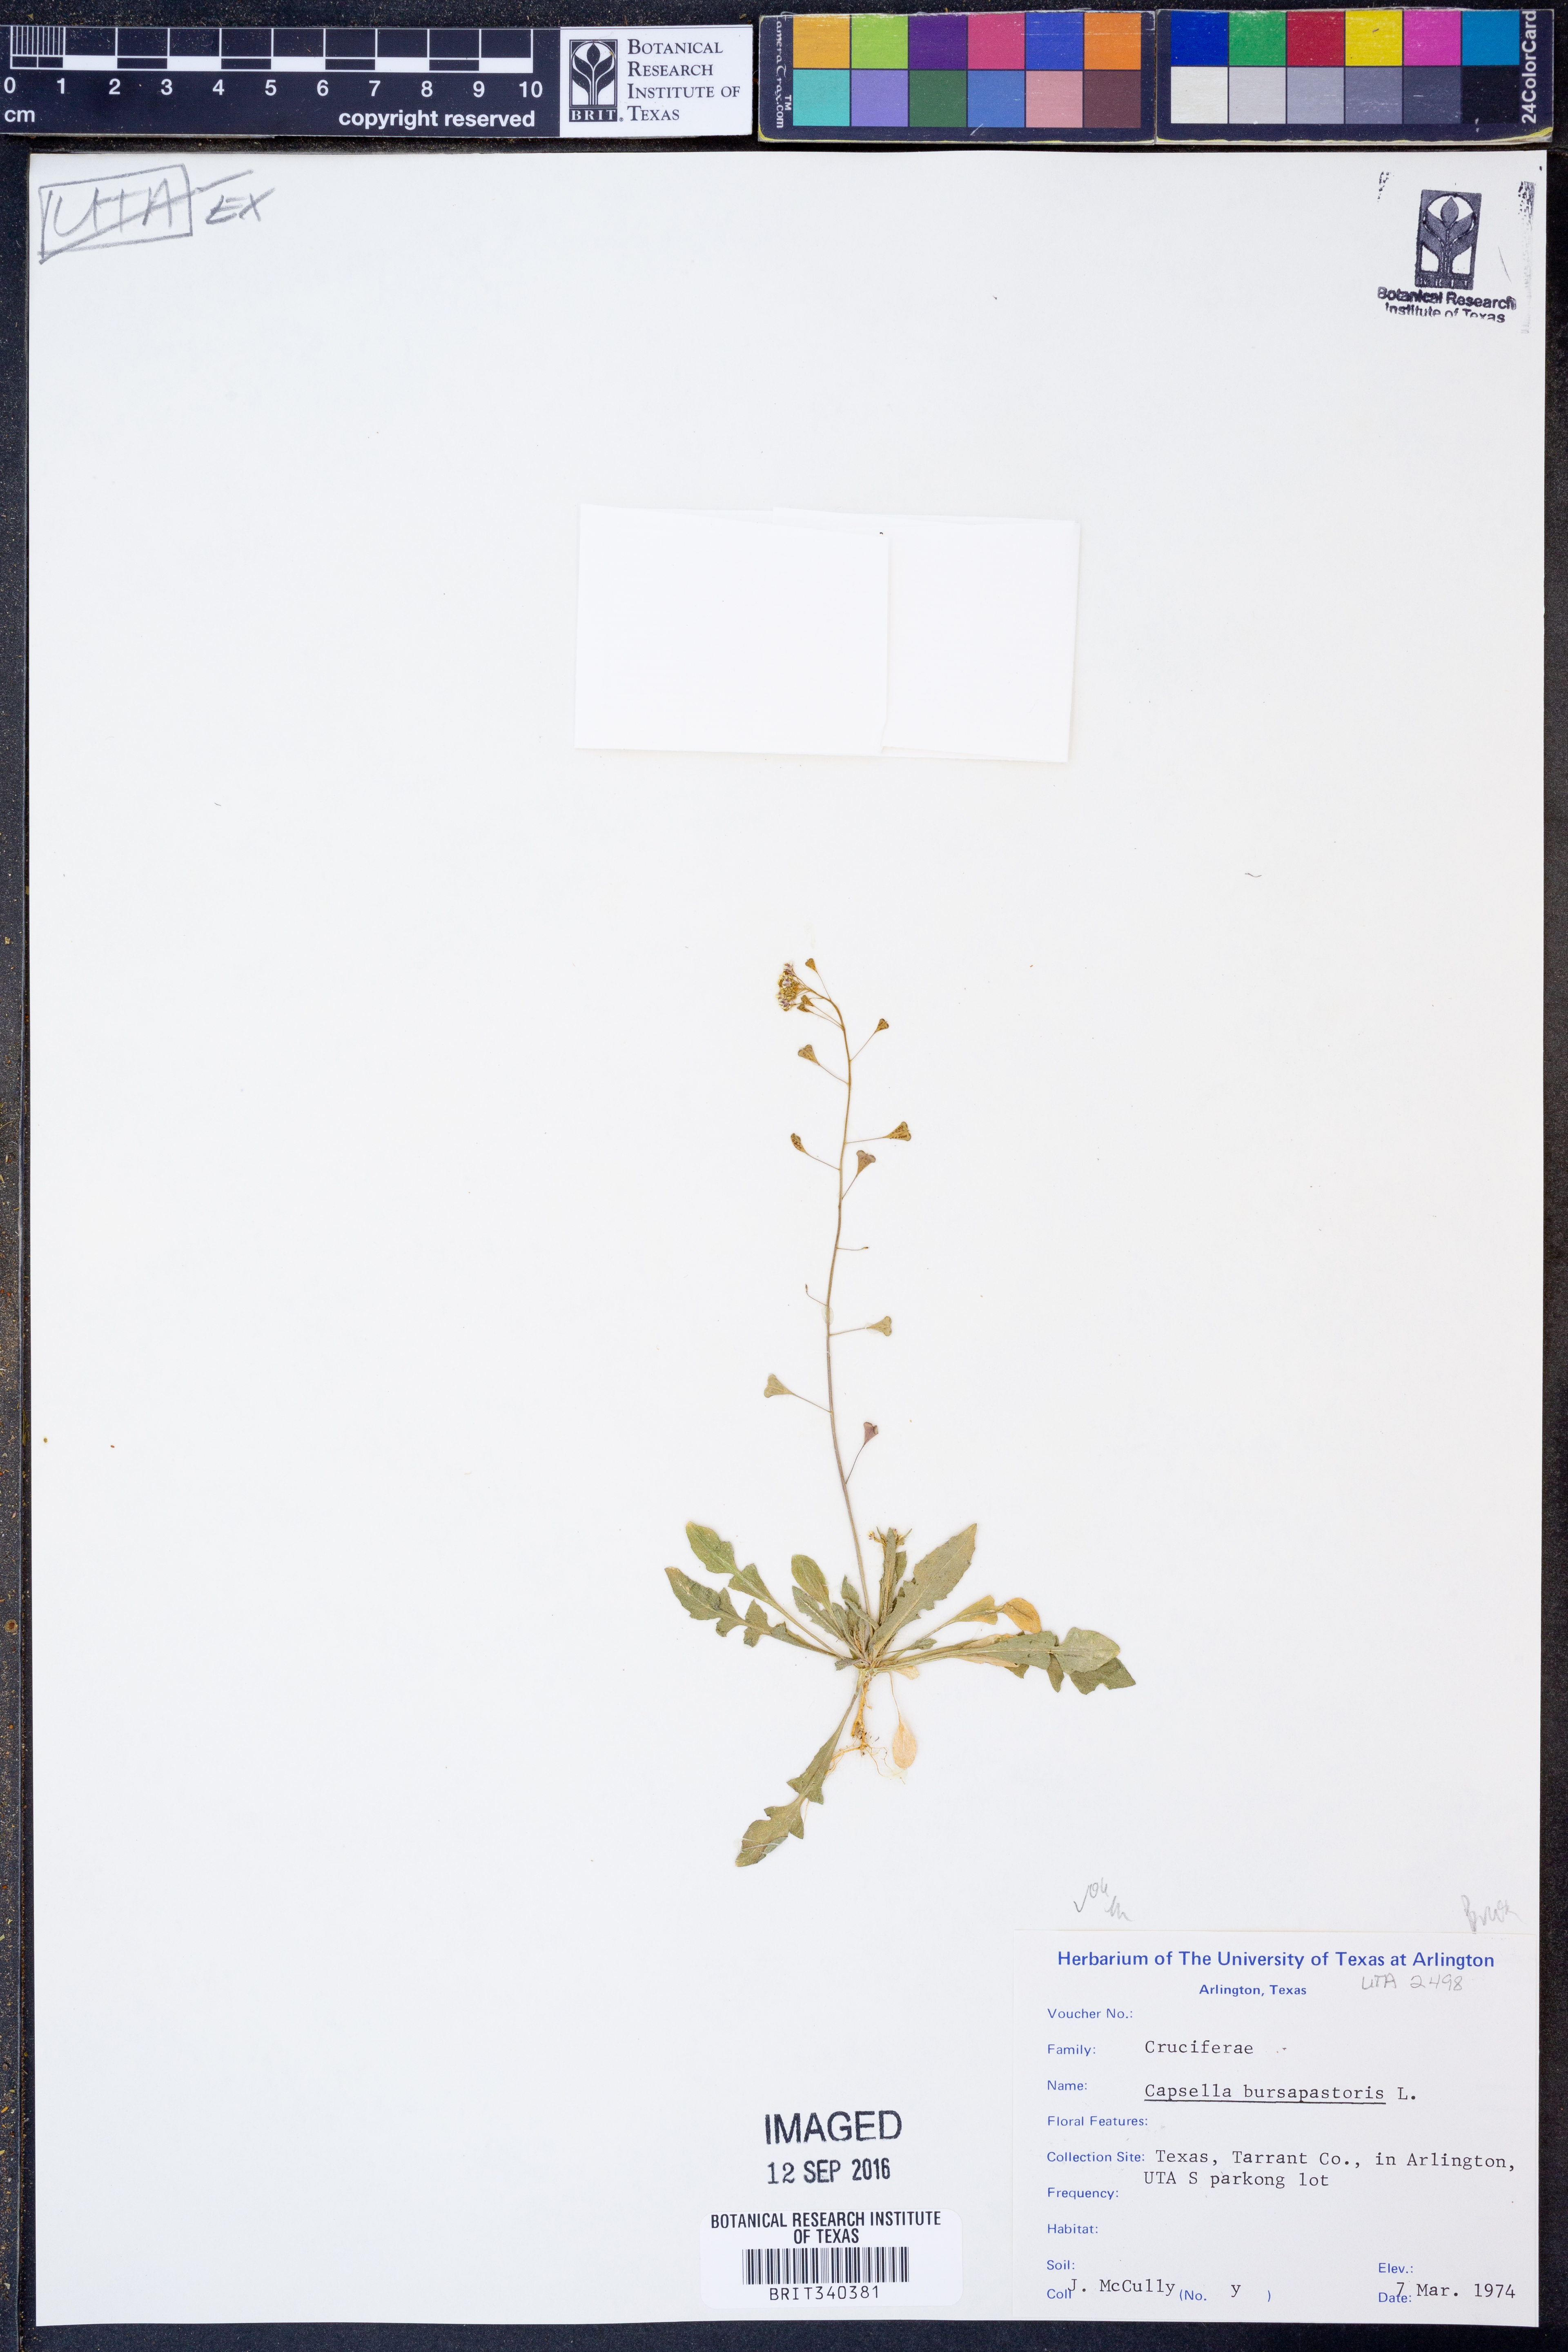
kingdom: Plantae
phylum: Tracheophyta
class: Magnoliopsida
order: Brassicales
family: Brassicaceae
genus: Capsella
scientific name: Capsella bursa-pastoris
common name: Shepherd's purse
